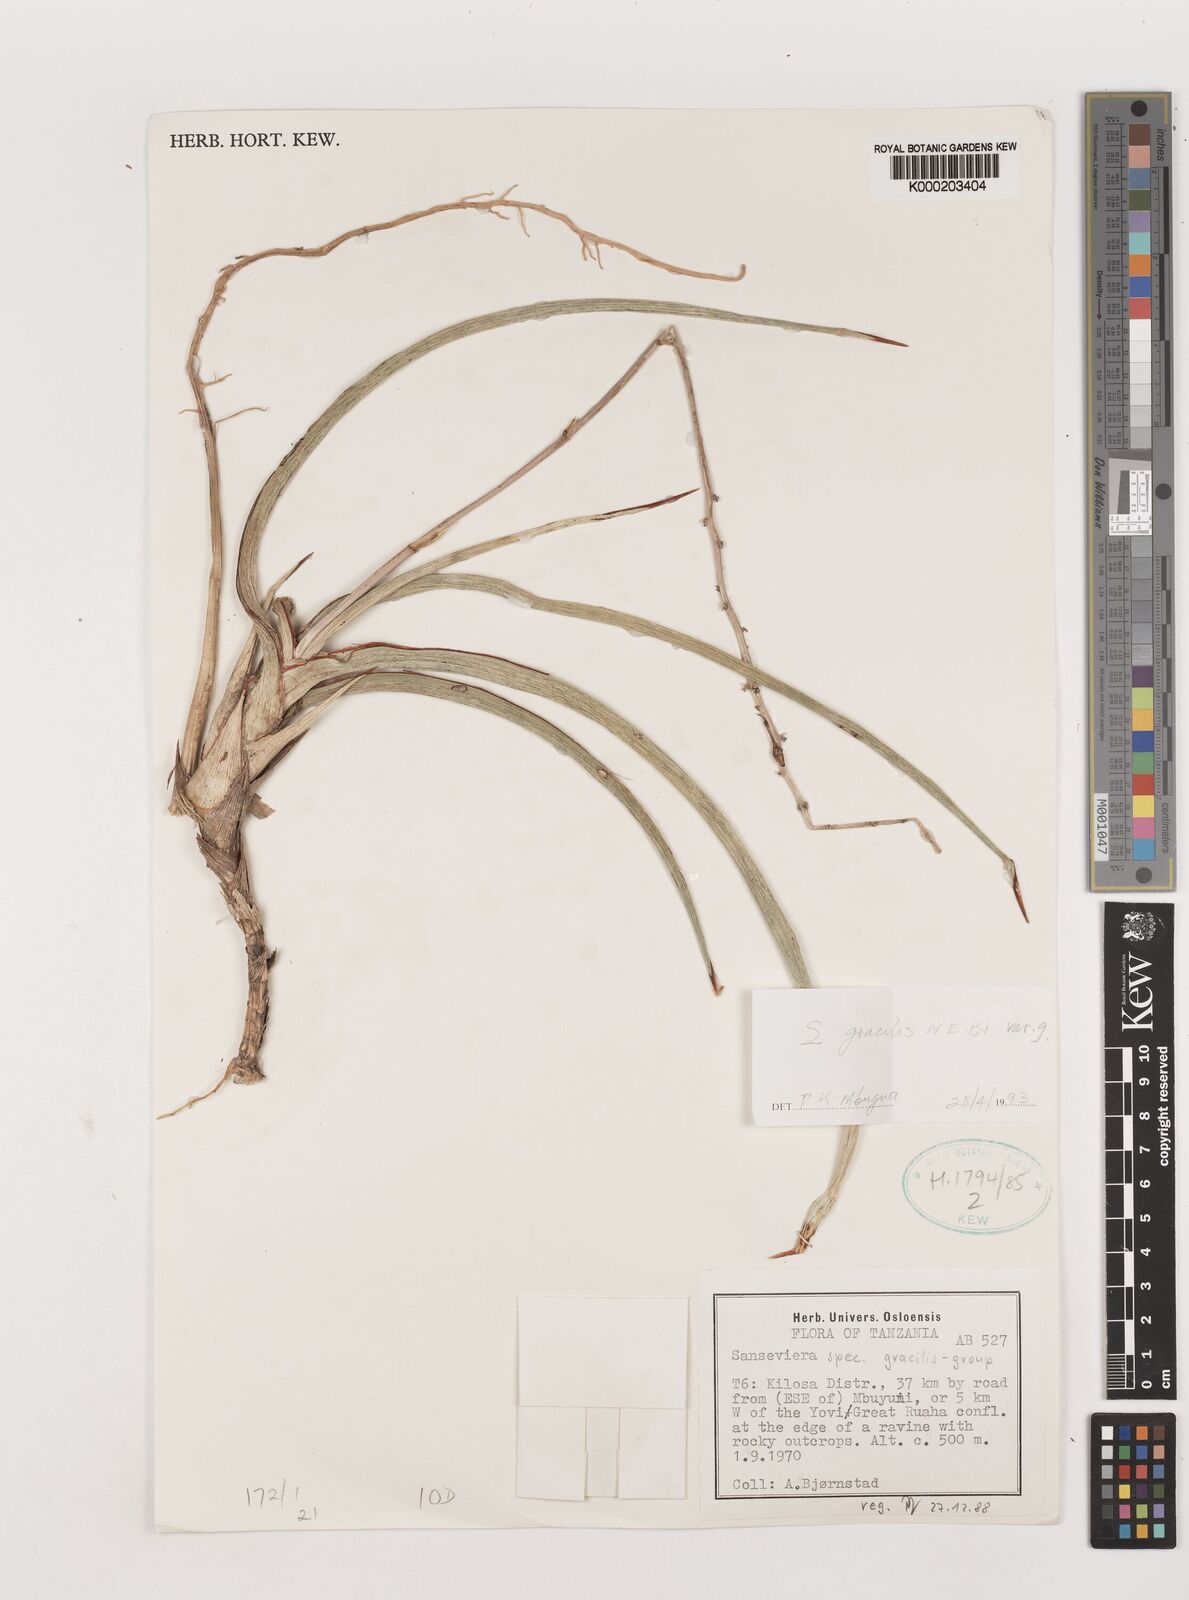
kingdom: Plantae
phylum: Tracheophyta
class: Liliopsida
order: Asparagales
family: Asparagaceae
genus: Dracaena
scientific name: Dracaena serpenta
